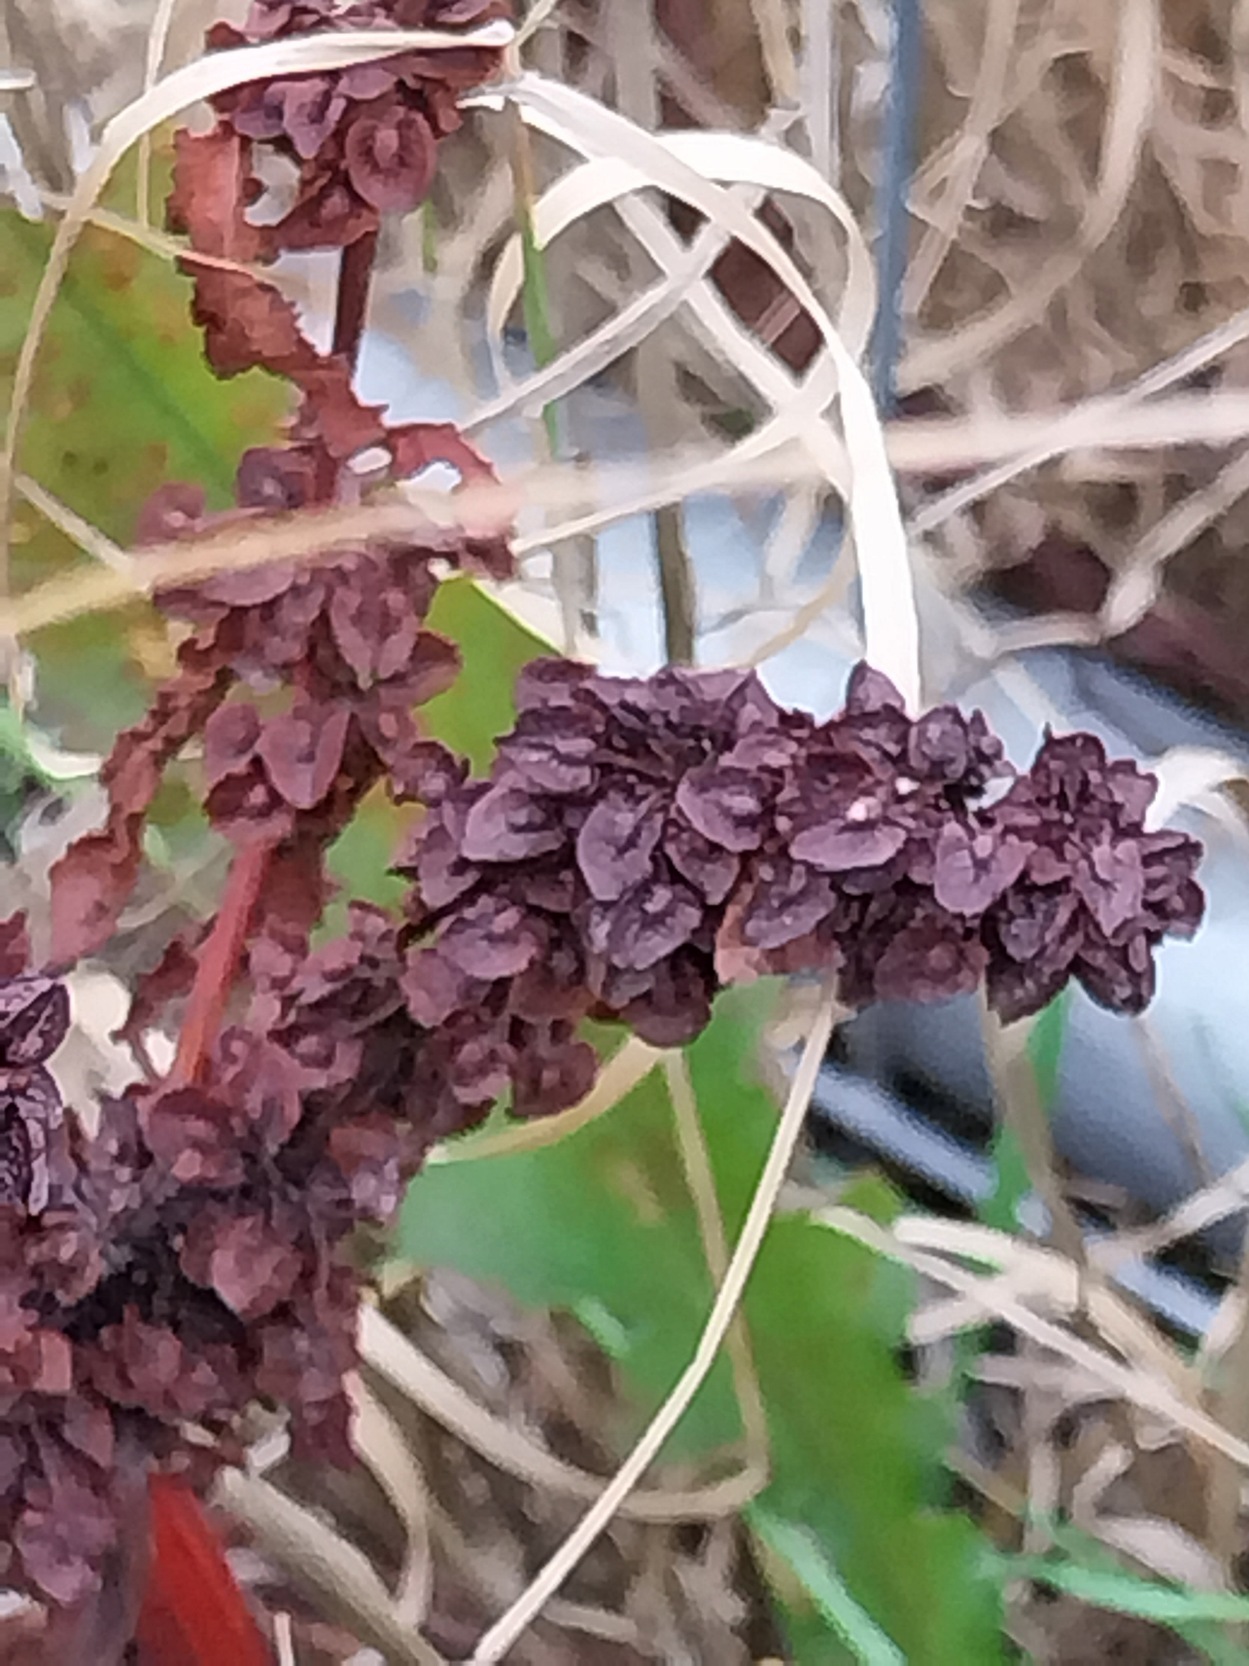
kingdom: Plantae
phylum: Tracheophyta
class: Magnoliopsida
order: Caryophyllales
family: Polygonaceae
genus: Rumex
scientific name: Rumex crispus
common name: Kruset skræppe
